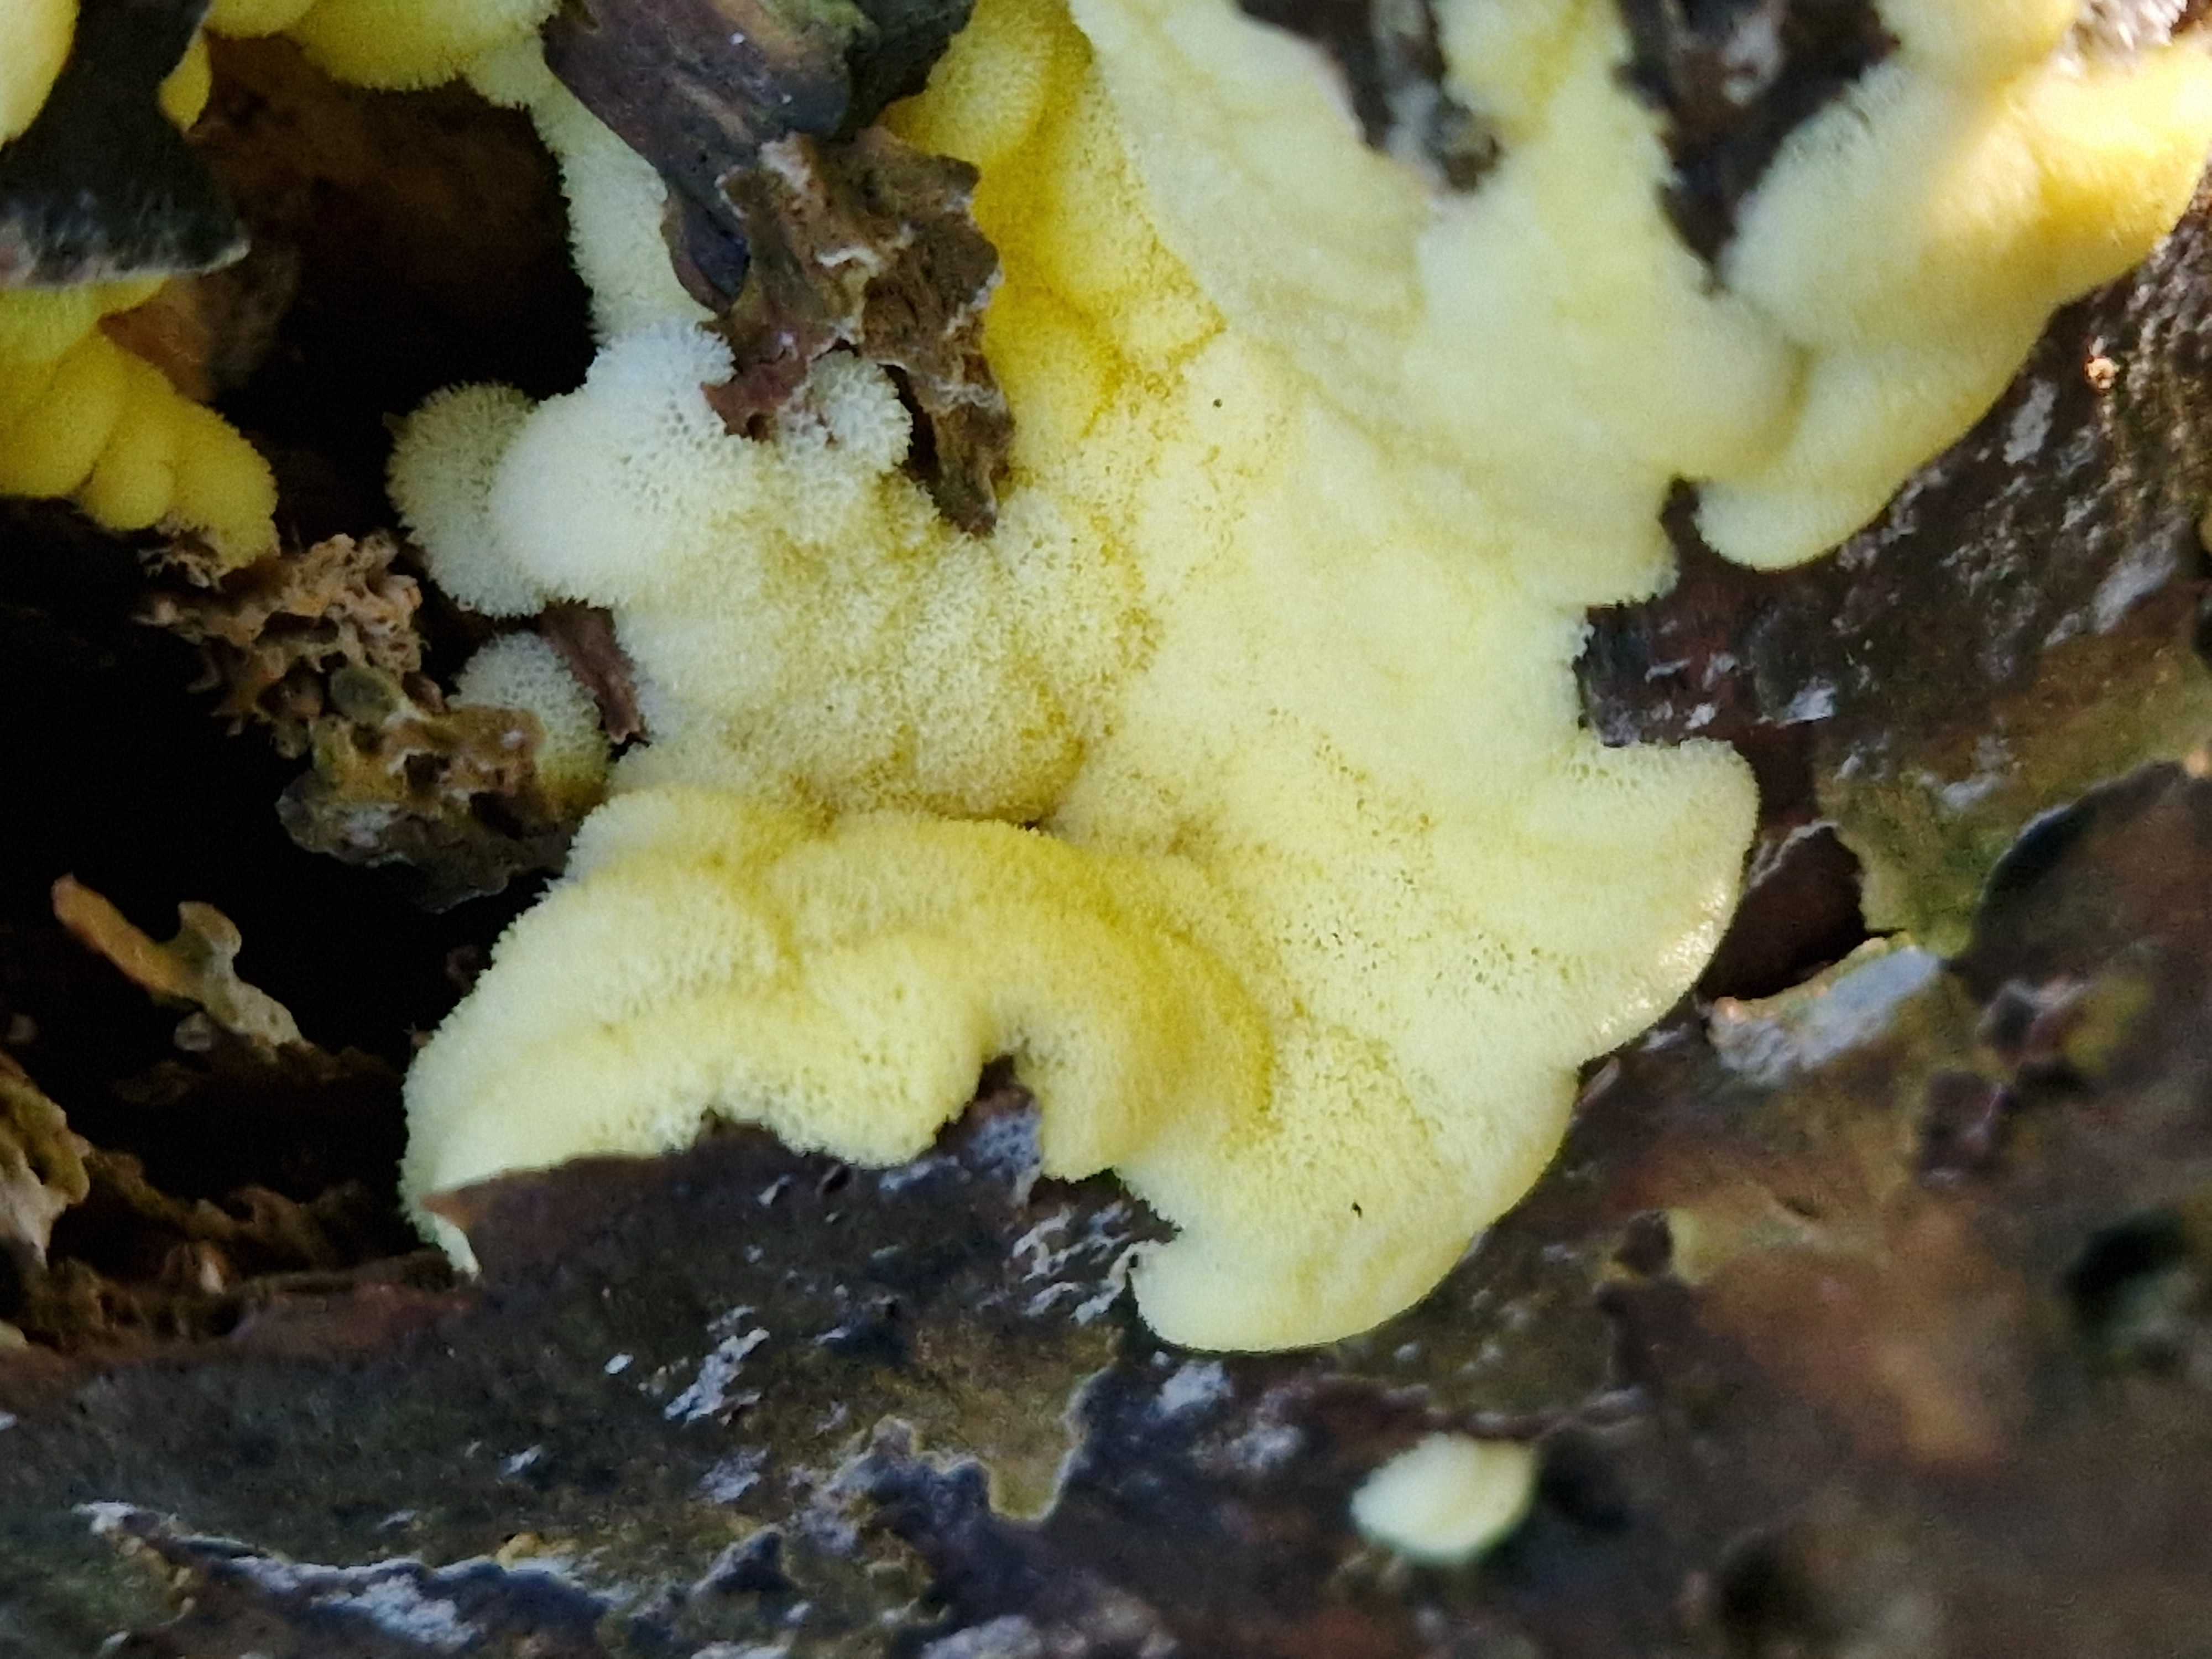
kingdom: Protozoa
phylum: Mycetozoa
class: Protosteliomycetes
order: Ceratiomyxales
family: Ceratiomyxaceae
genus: Ceratiomyxa
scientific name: Ceratiomyxa fruticulosa
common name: Honeycomb coral slime mold
